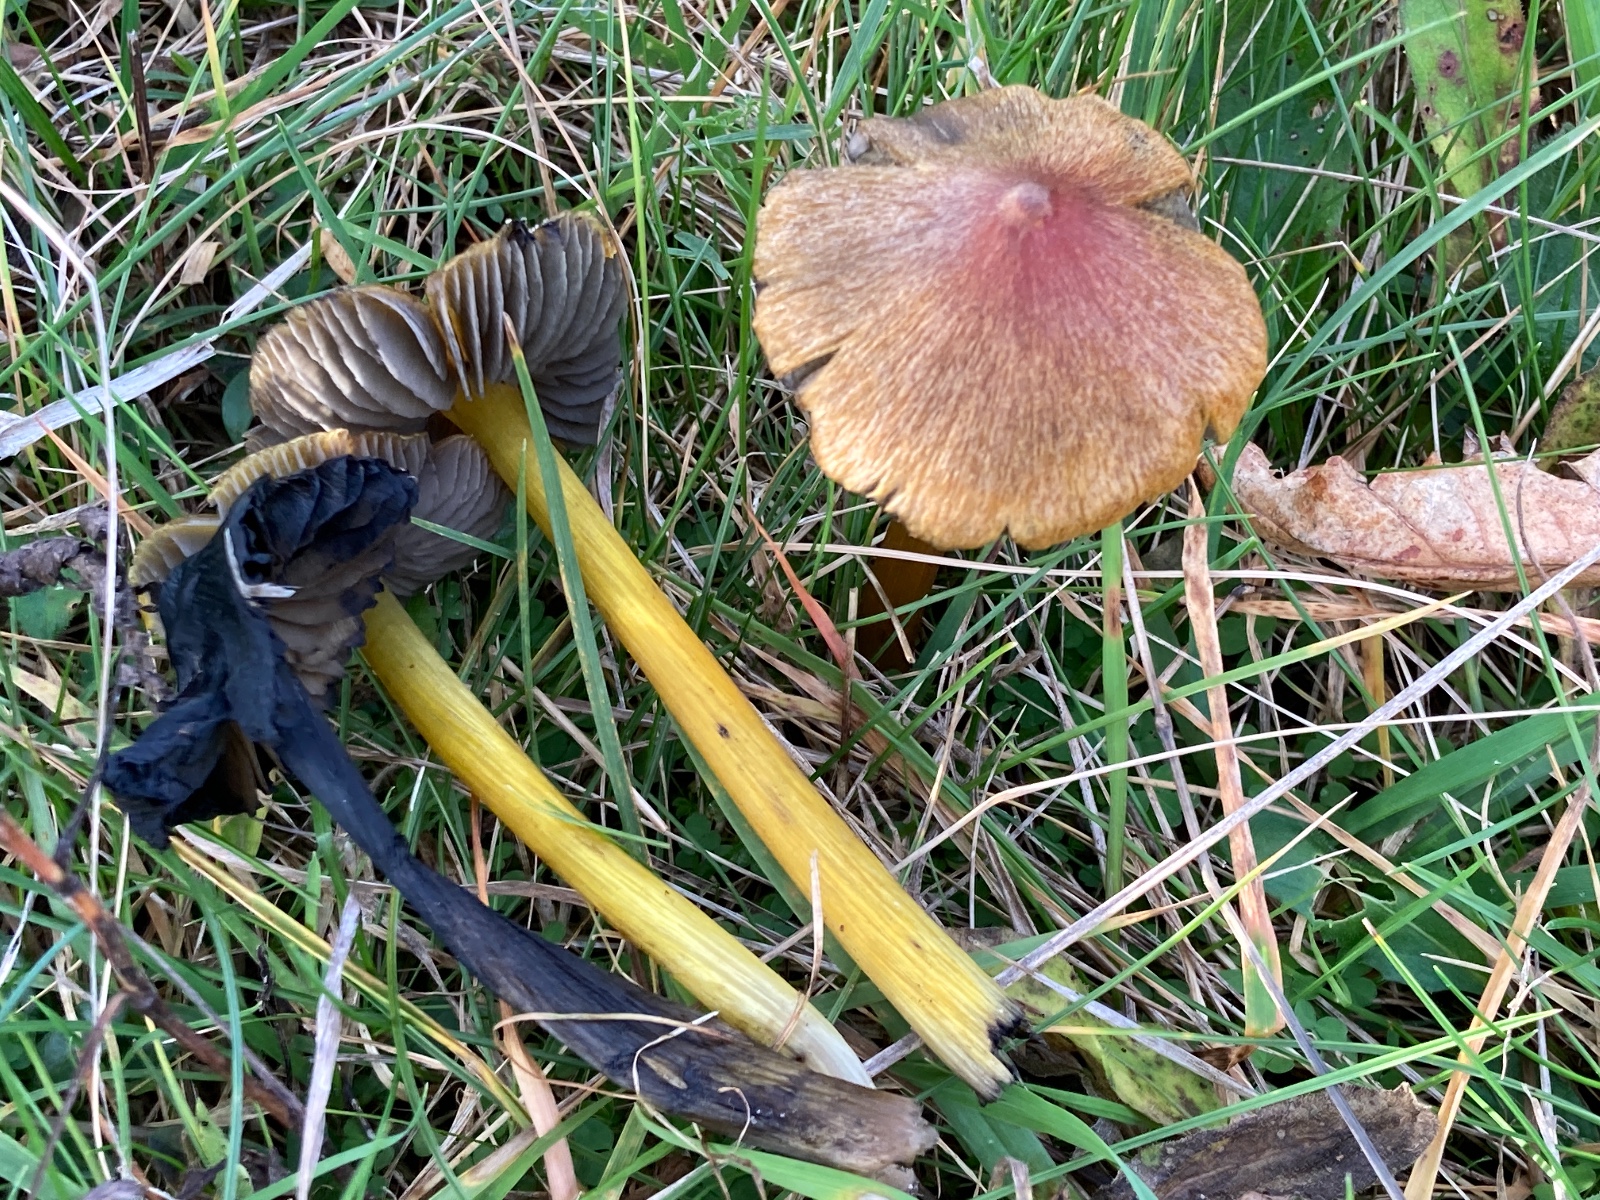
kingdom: Fungi
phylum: Basidiomycota
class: Agaricomycetes
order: Agaricales
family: Hygrophoraceae
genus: Hygrocybe
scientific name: Hygrocybe conica
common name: kegle-vokshat
